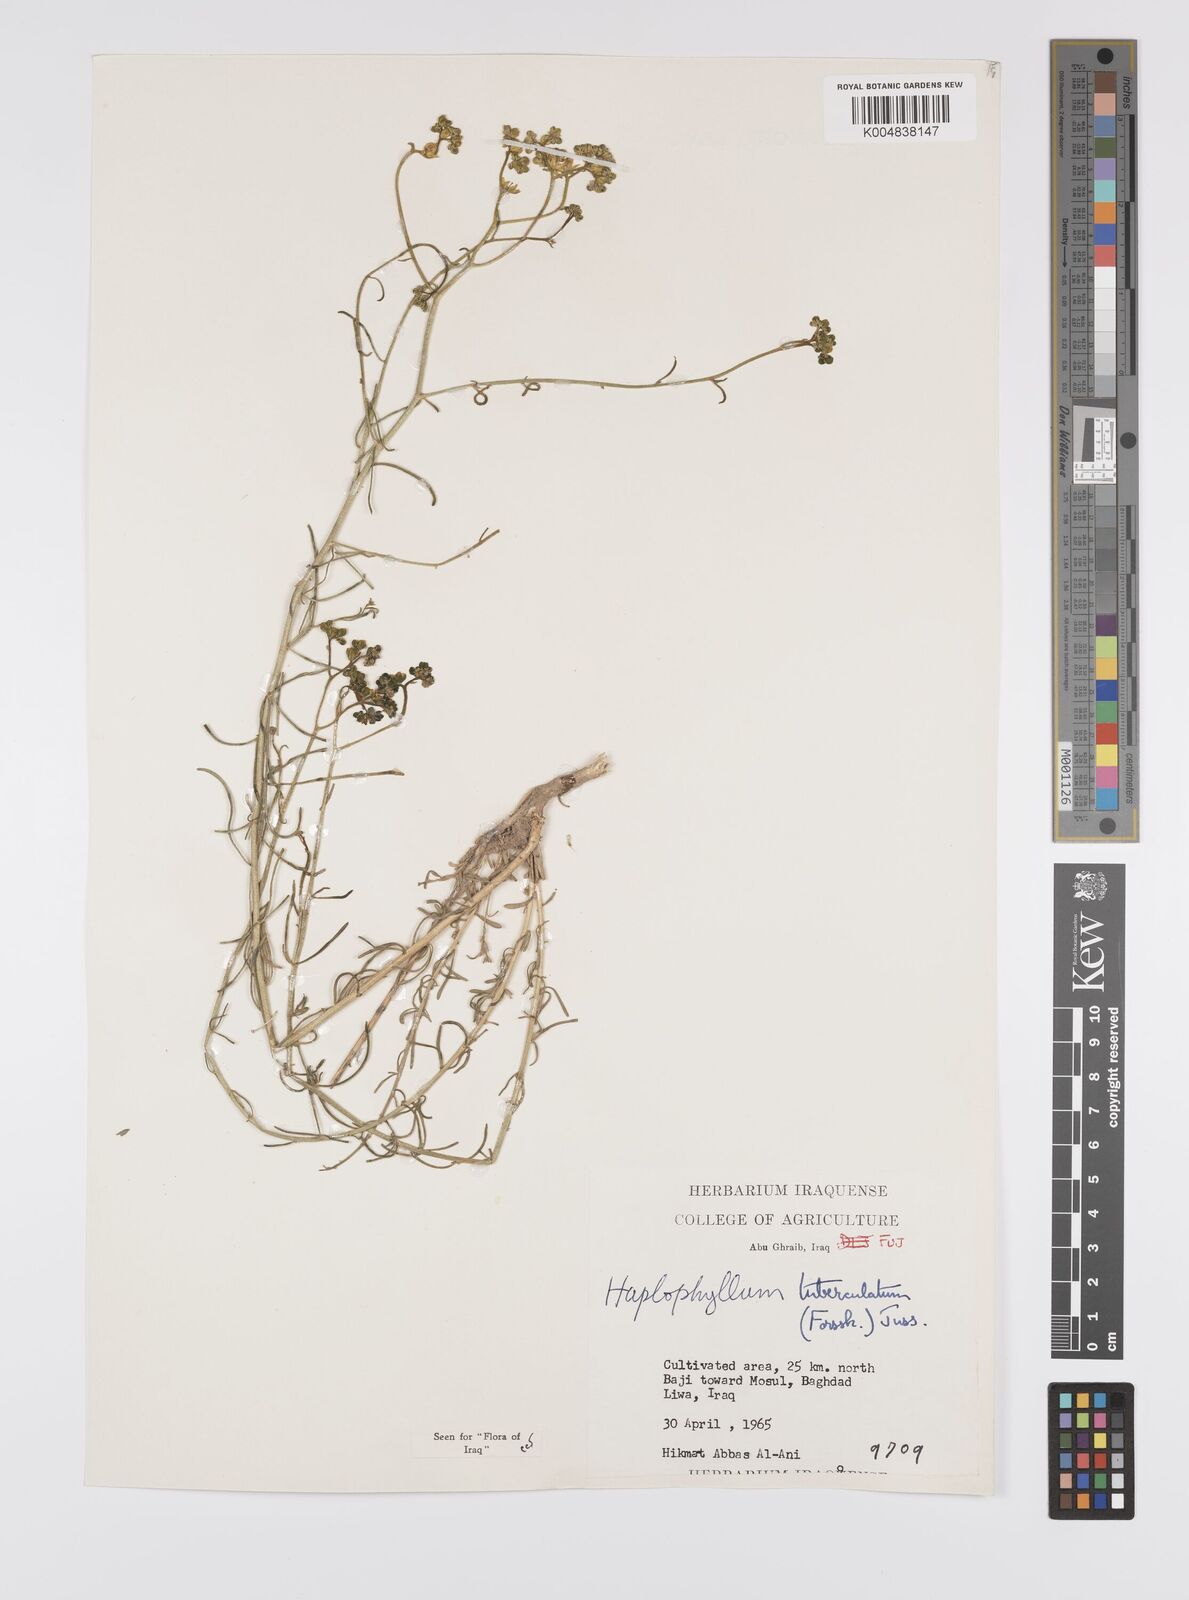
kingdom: Plantae
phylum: Tracheophyta
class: Magnoliopsida
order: Sapindales
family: Rutaceae
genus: Haplophyllum
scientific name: Haplophyllum tuberculatum
